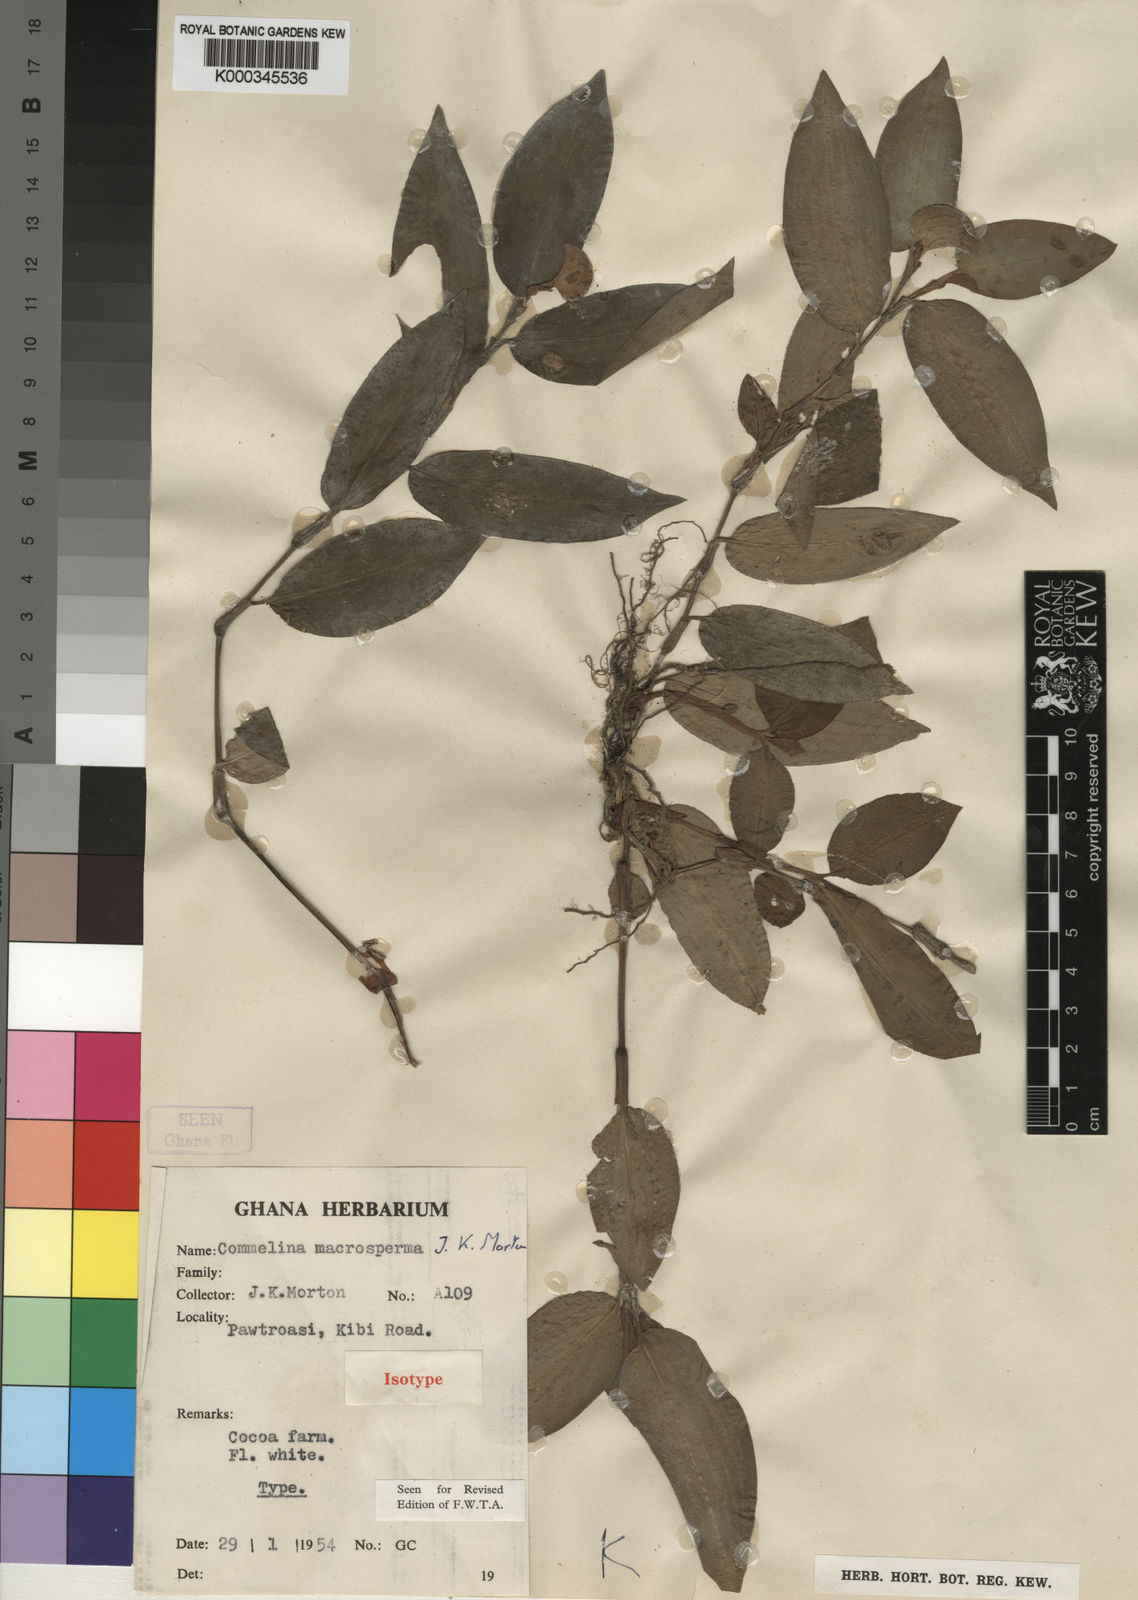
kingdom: Plantae
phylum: Tracheophyta
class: Liliopsida
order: Commelinales
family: Commelinaceae
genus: Commelina
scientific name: Commelina macrosperma
